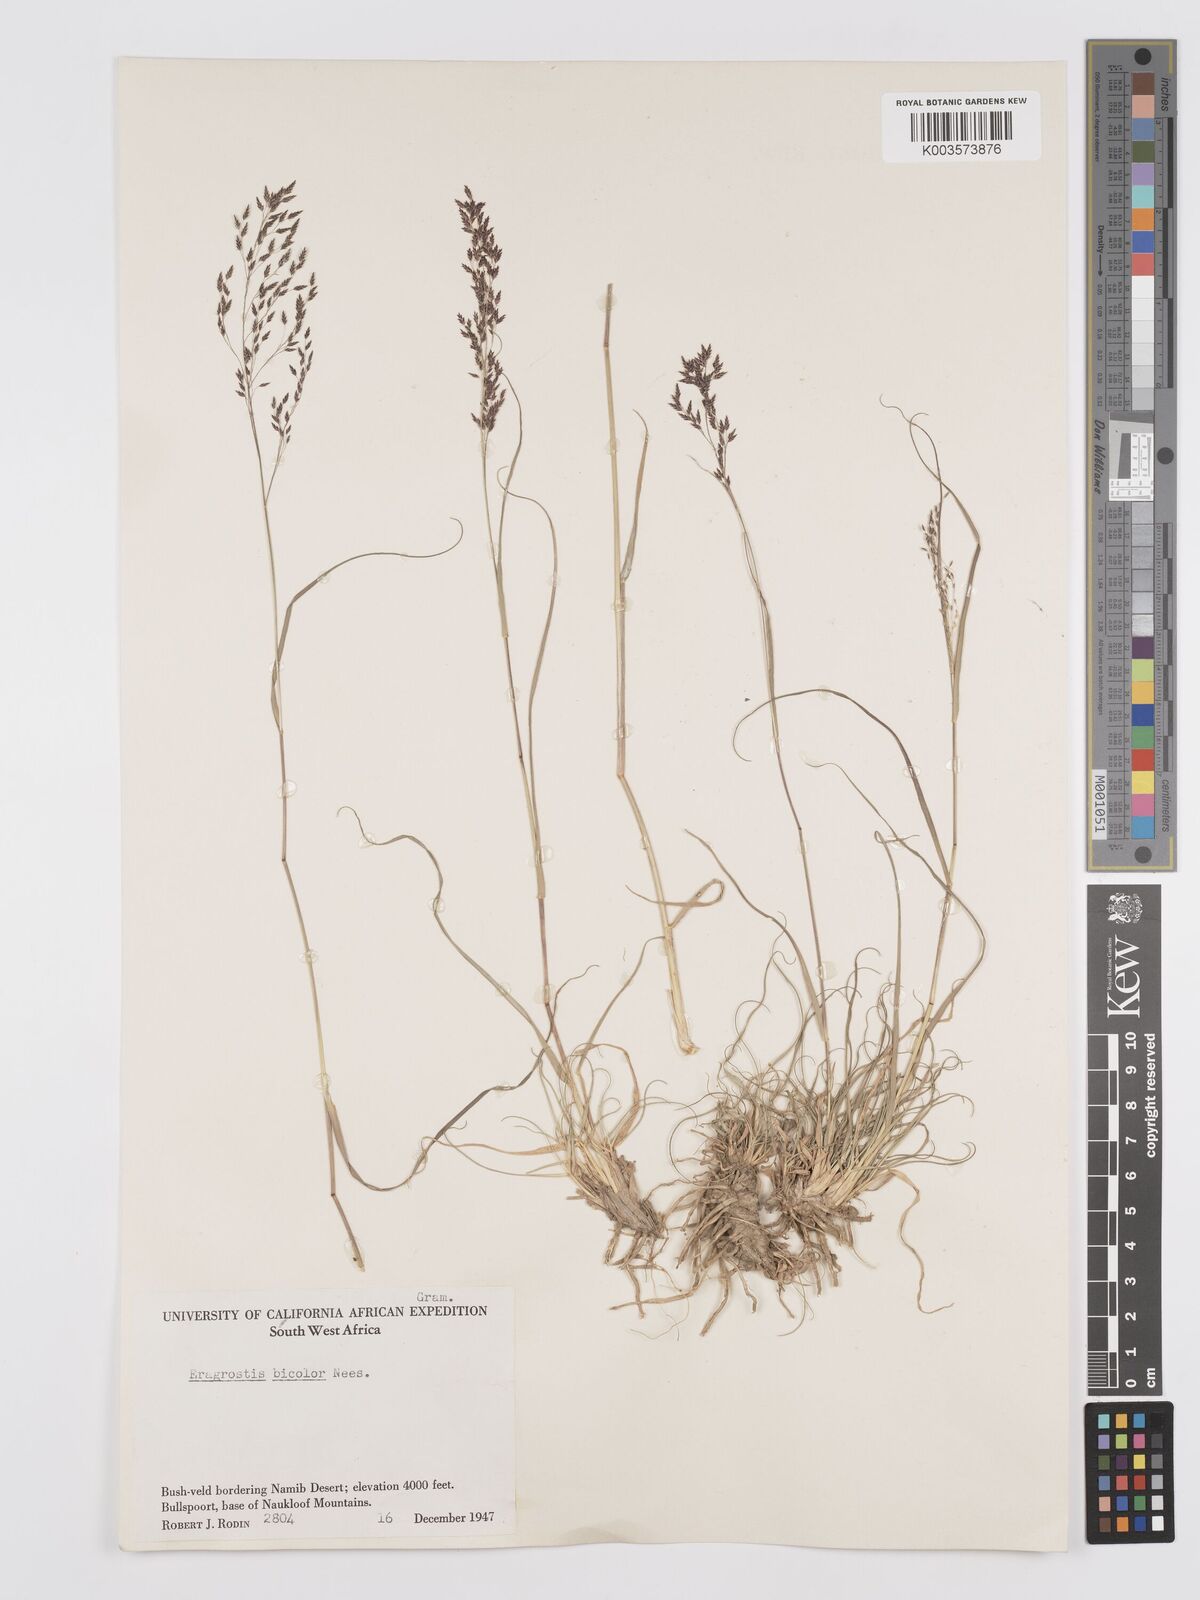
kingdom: Plantae
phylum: Tracheophyta
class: Liliopsida
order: Poales
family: Poaceae
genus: Eragrostis
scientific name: Eragrostis
